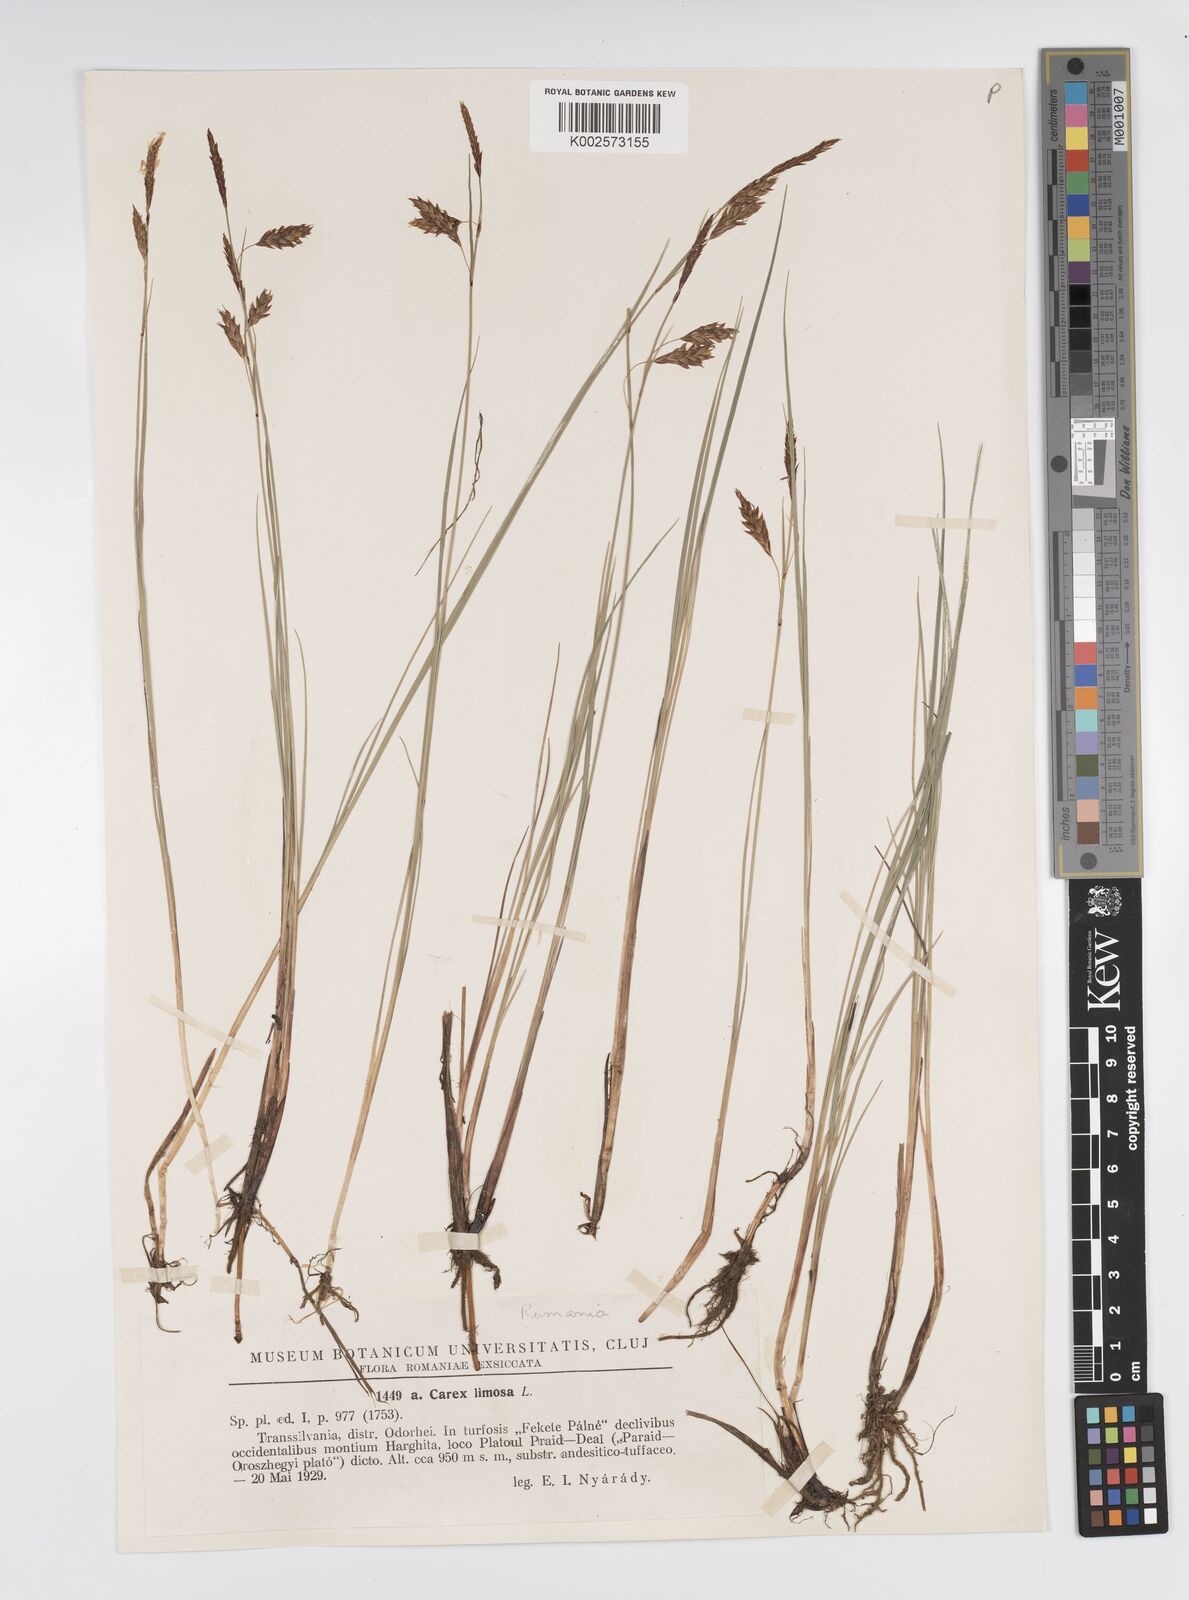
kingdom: Plantae
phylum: Tracheophyta
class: Liliopsida
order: Poales
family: Cyperaceae
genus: Carex
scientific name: Carex limosa
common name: Bog sedge
